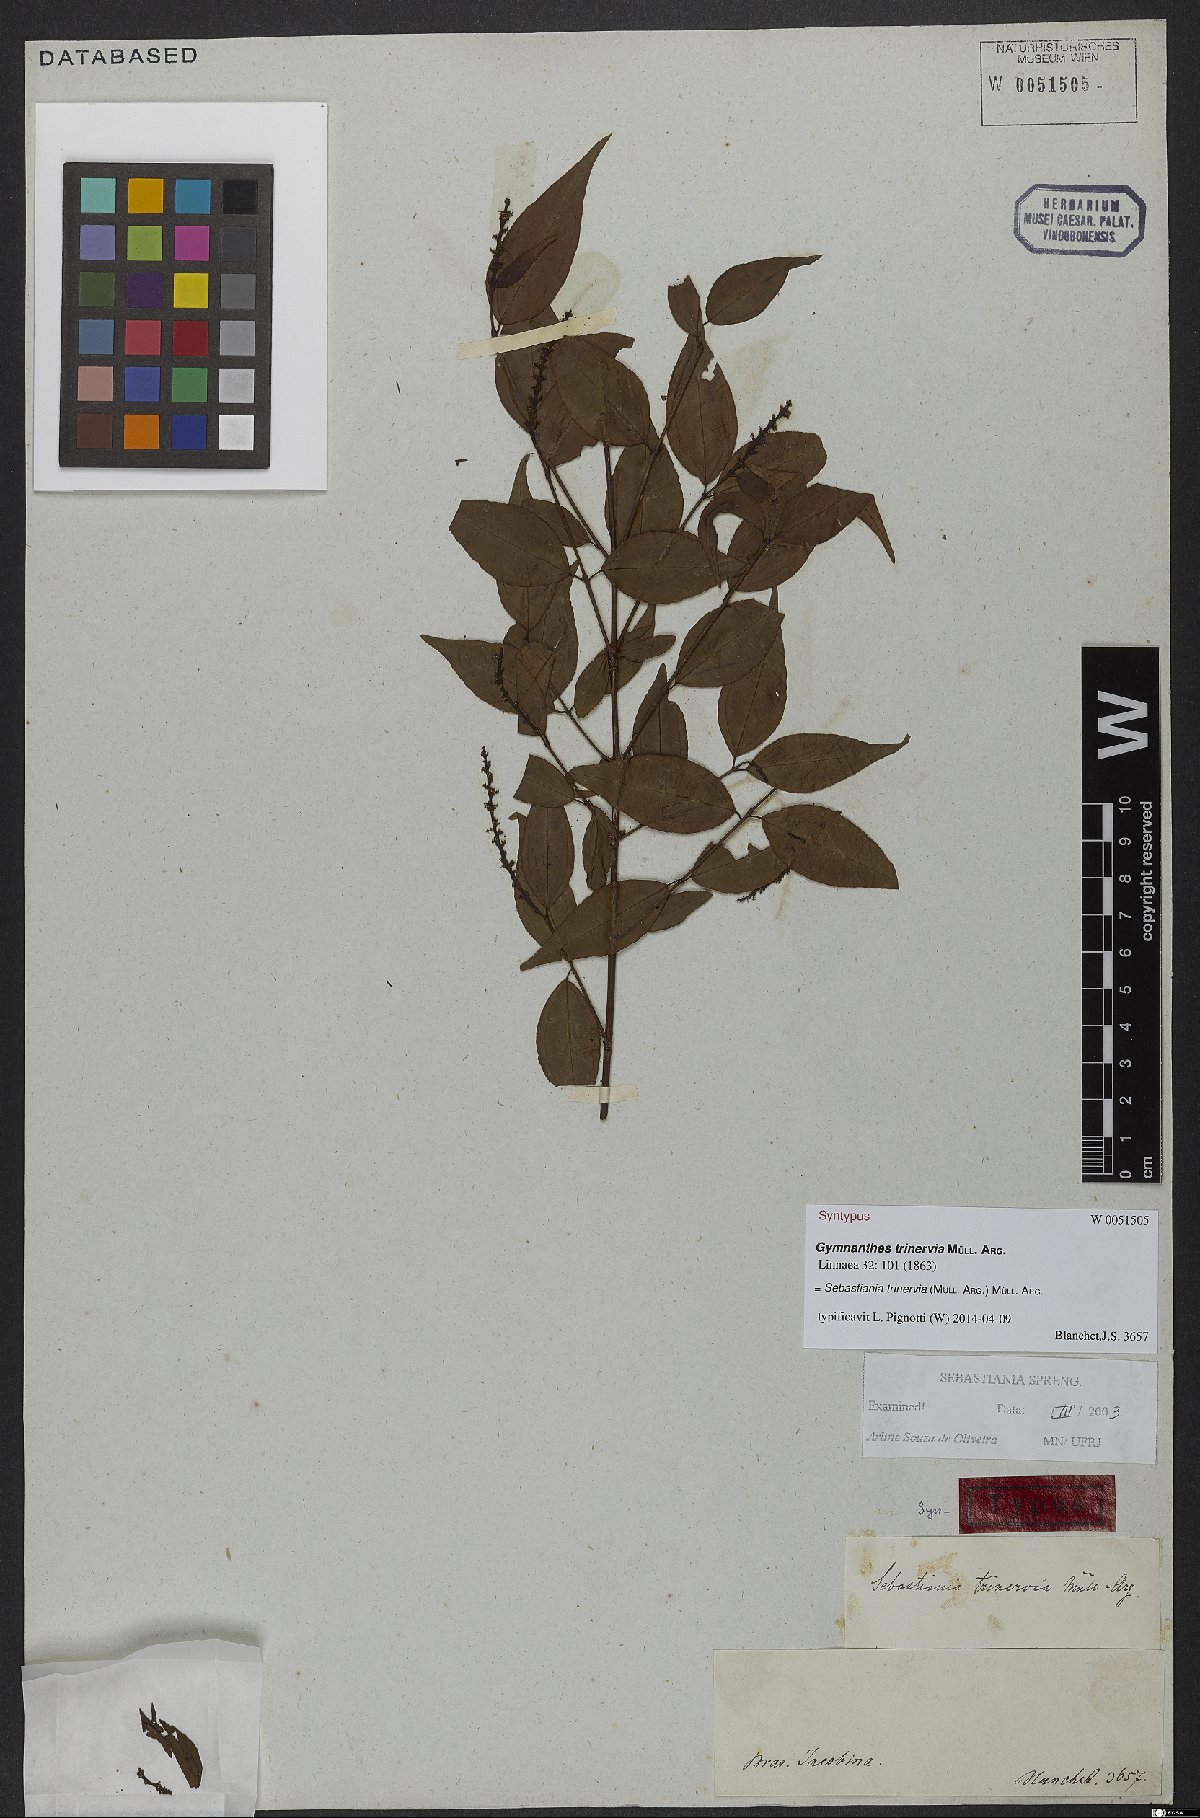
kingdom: Plantae
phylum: Tracheophyta
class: Magnoliopsida
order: Malpighiales
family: Euphorbiaceae
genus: Sebastiania
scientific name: Sebastiania trinervia
